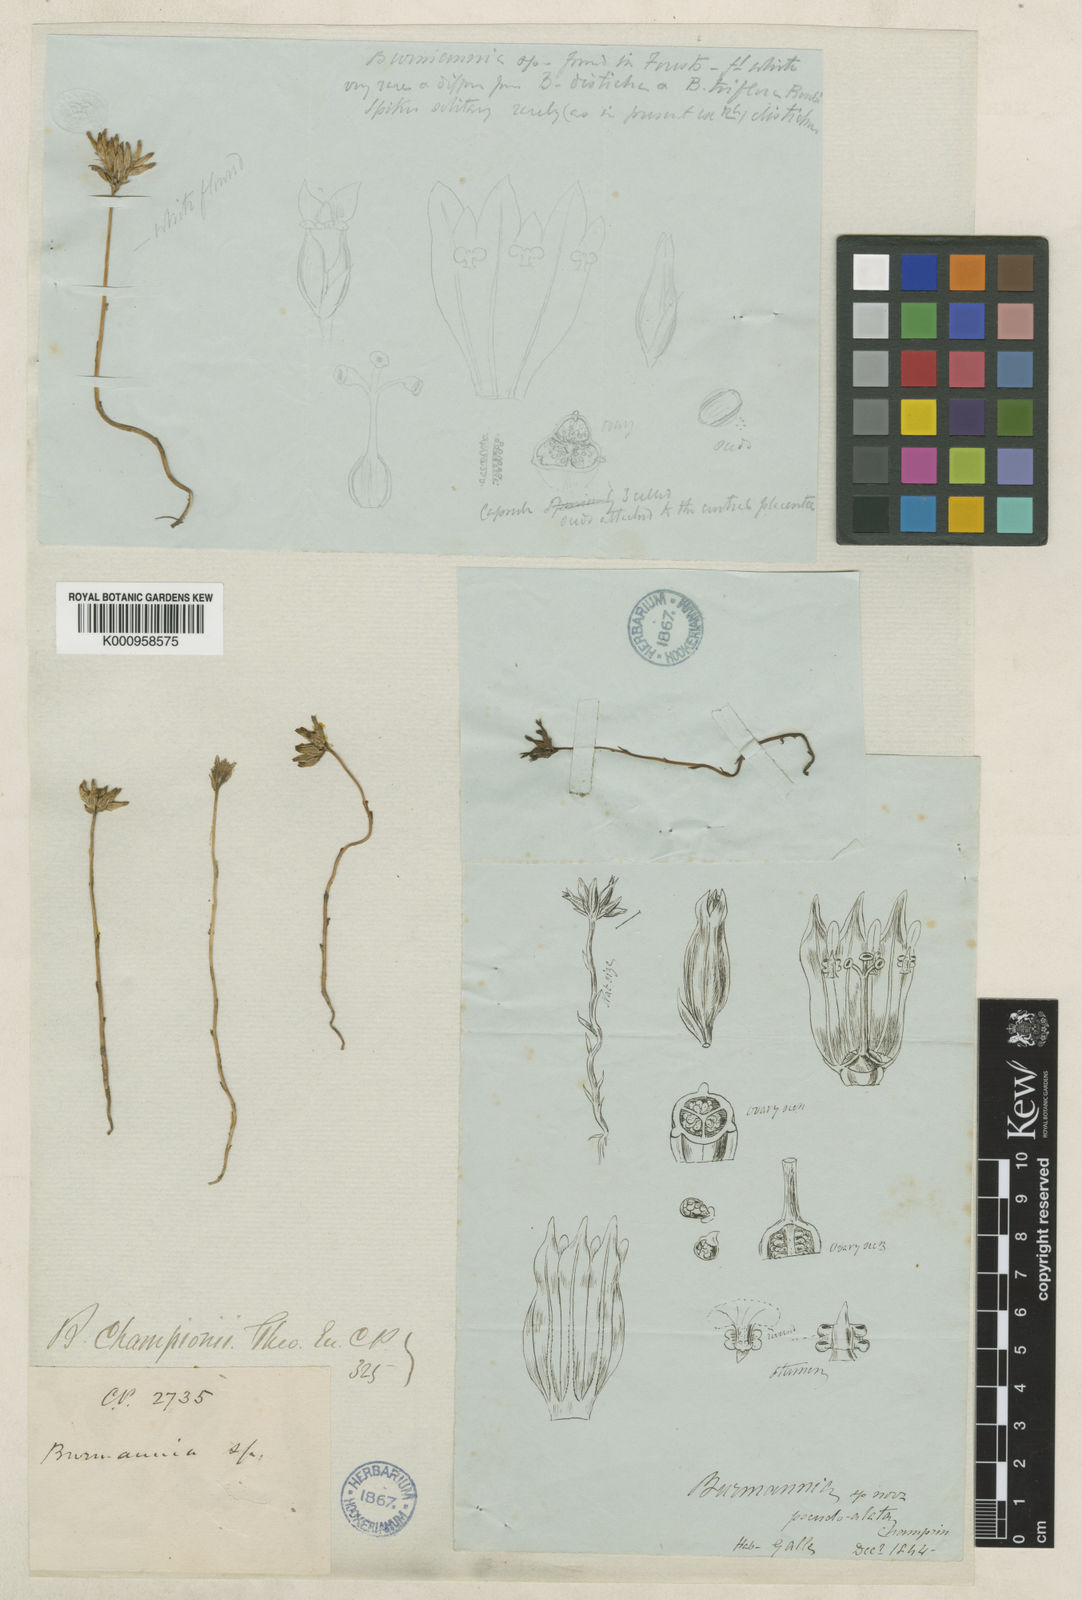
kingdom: Plantae
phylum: Tracheophyta
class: Liliopsida
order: Dioscoreales
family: Burmanniaceae
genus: Burmannia
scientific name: Burmannia championii
